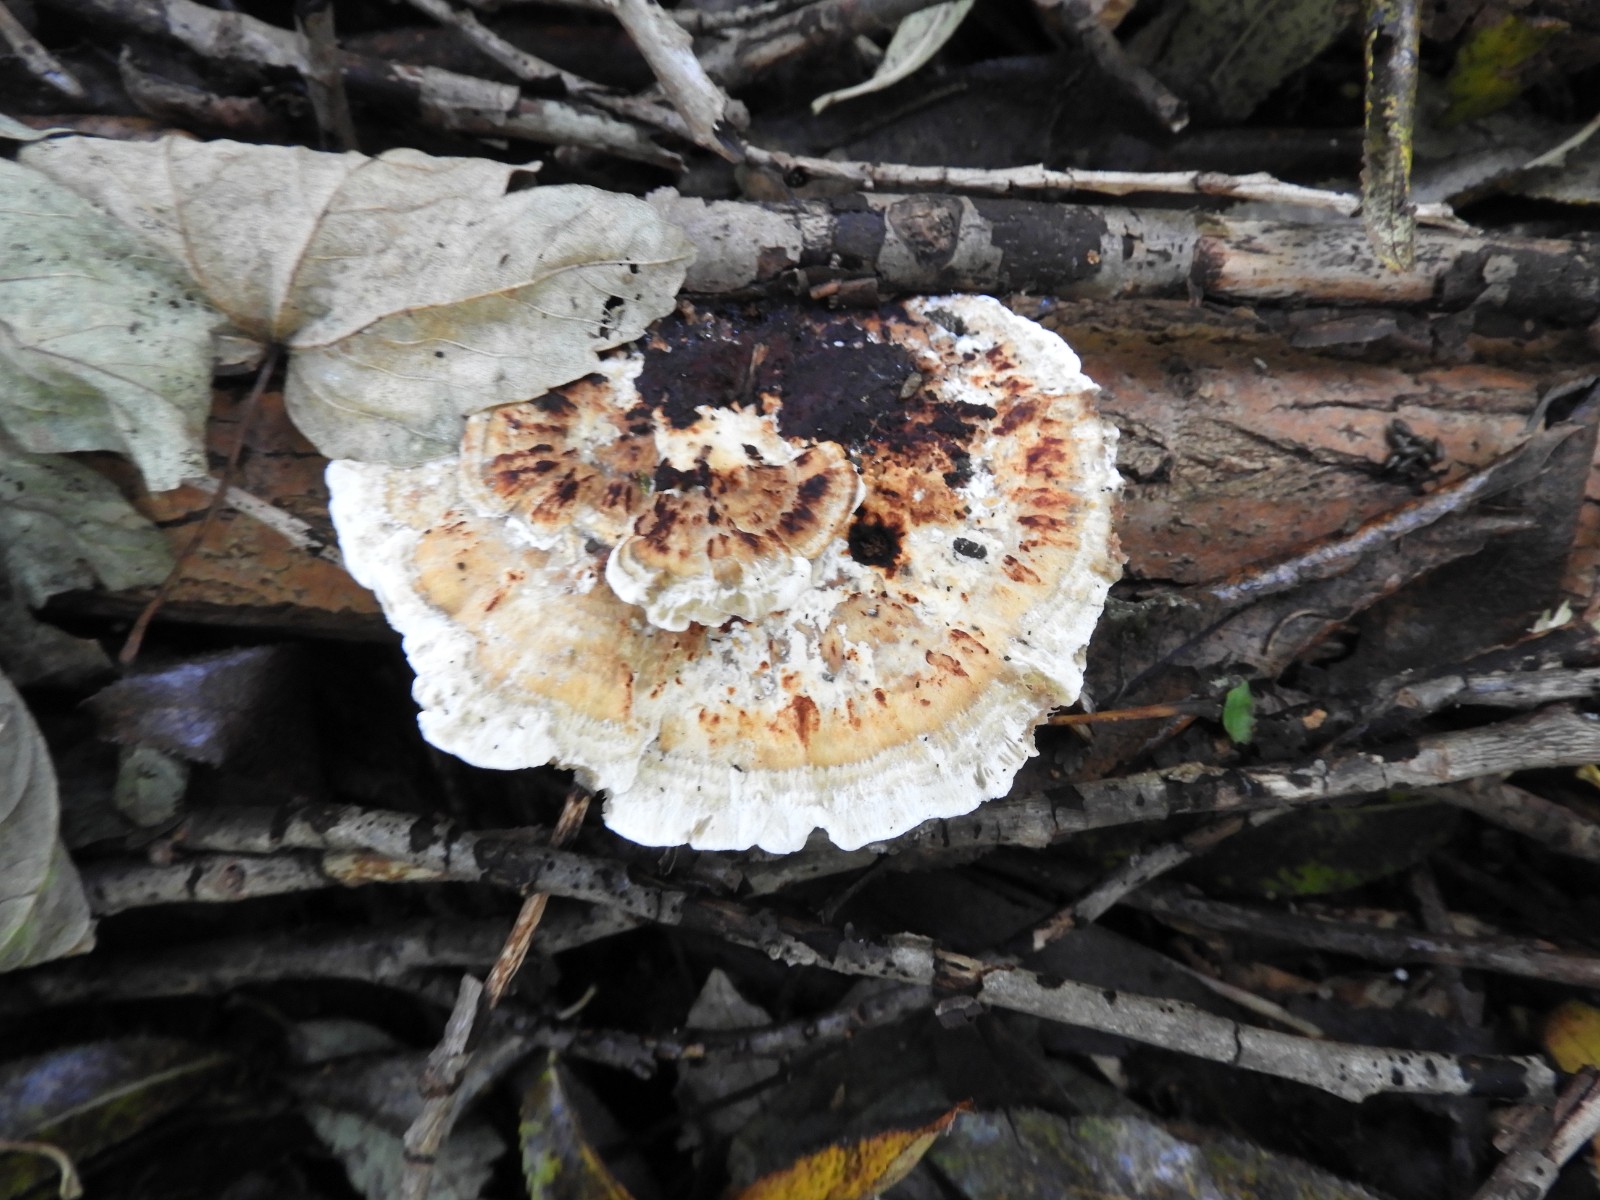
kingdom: Fungi
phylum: Basidiomycota
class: Agaricomycetes
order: Polyporales
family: Polyporaceae
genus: Daedaleopsis
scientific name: Daedaleopsis confragosa
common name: rødmende læderporesvamp
